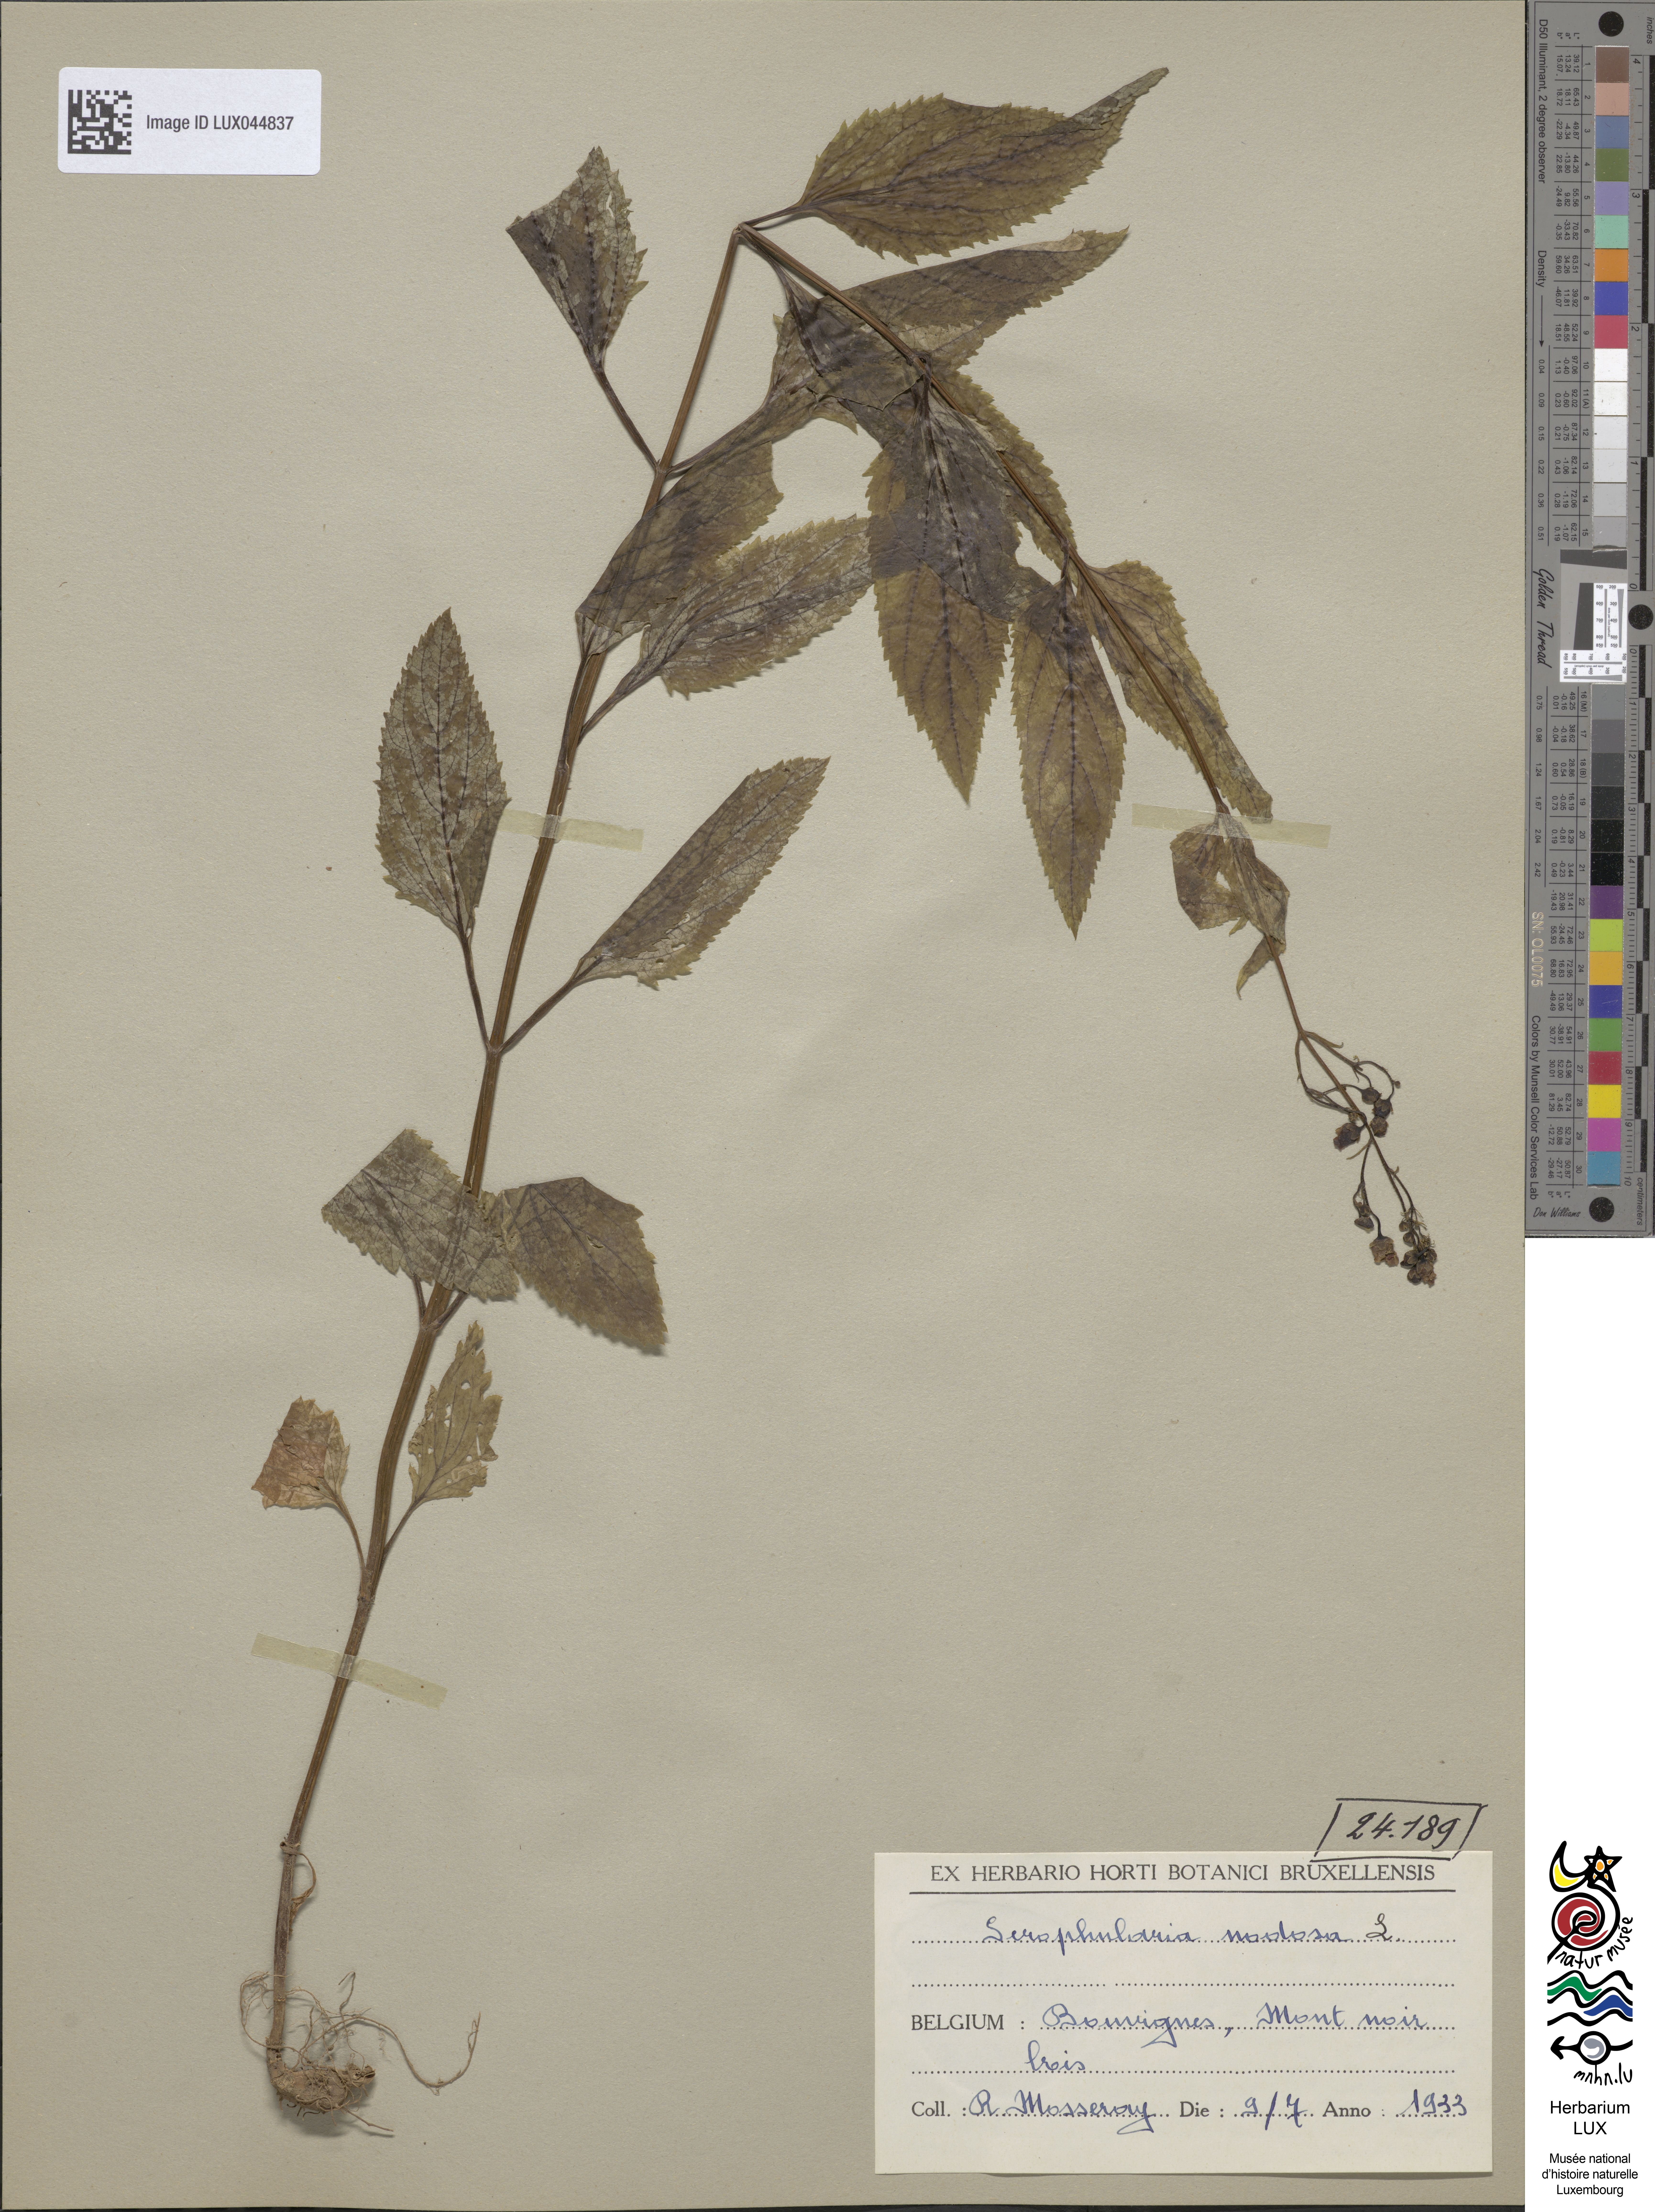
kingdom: Plantae
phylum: Tracheophyta
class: Magnoliopsida
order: Lamiales
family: Scrophulariaceae
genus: Scrophularia
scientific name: Scrophularia nodosa
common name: Common figwort
